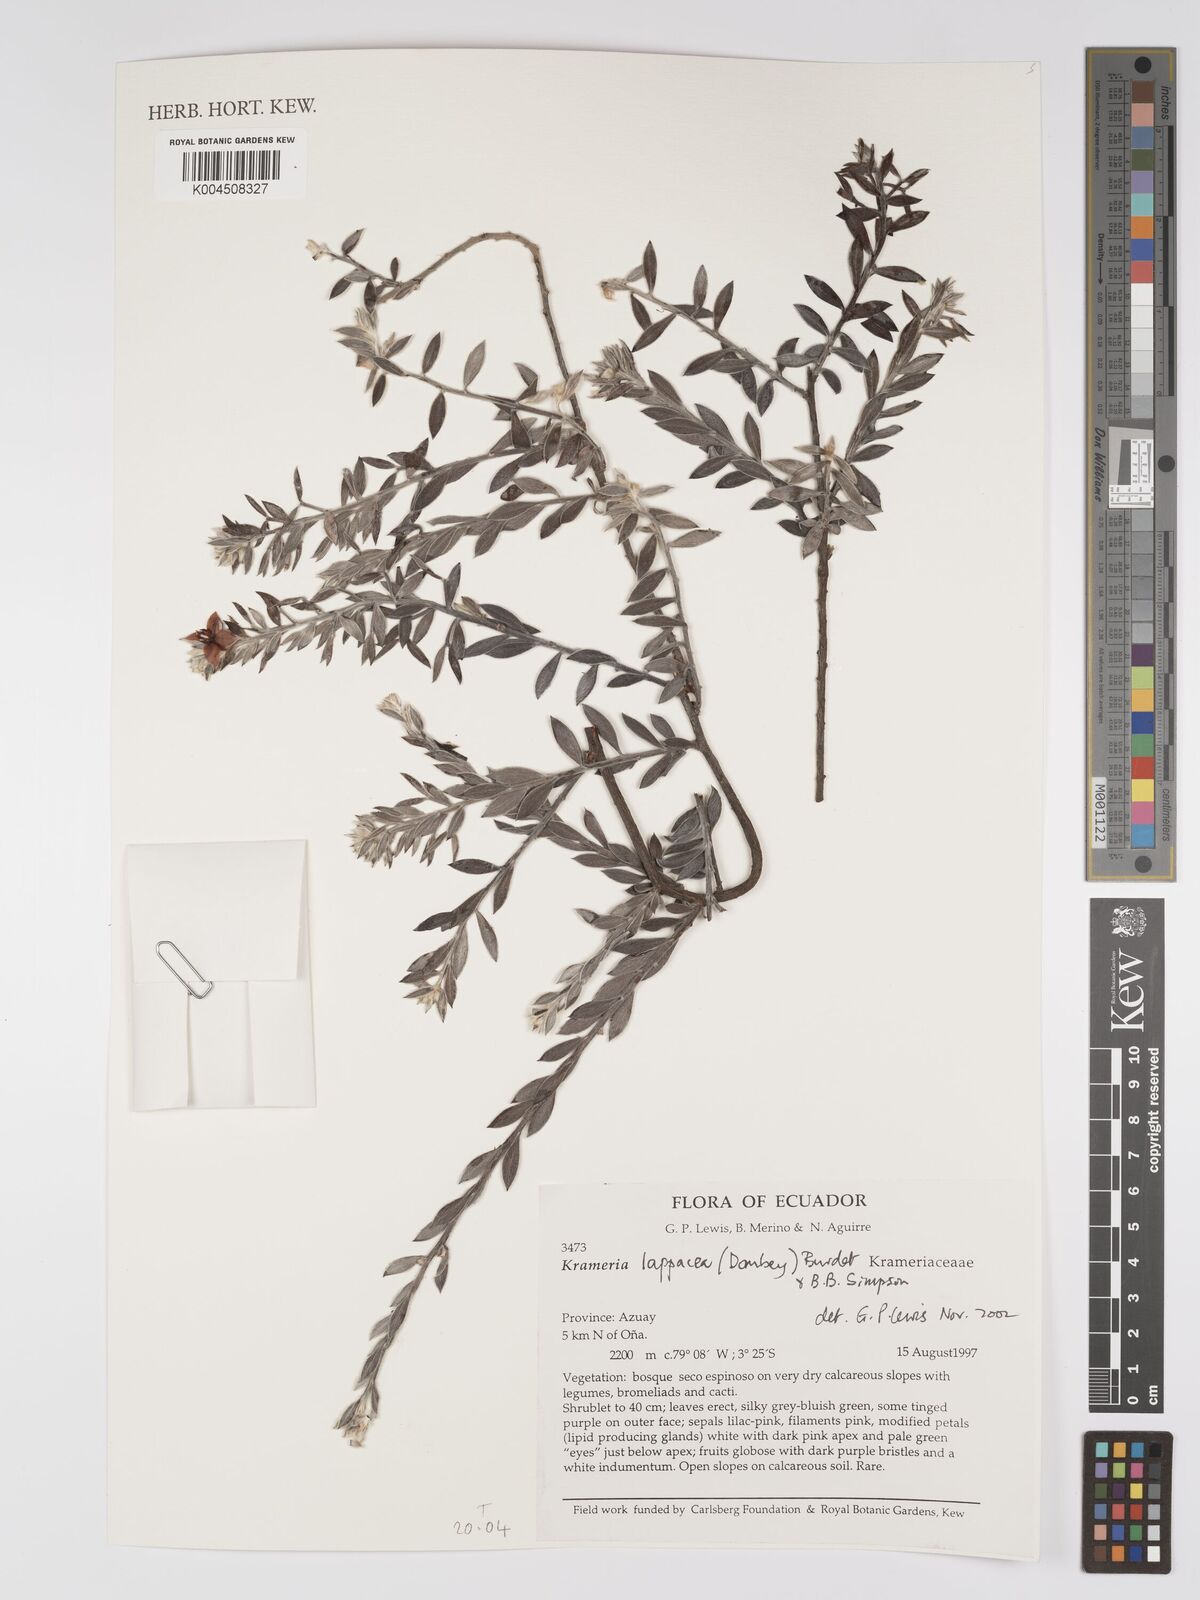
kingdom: Plantae
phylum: Tracheophyta
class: Magnoliopsida
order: Zygophyllales
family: Krameriaceae
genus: Krameria
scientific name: Krameria lappacea
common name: Rhatany
